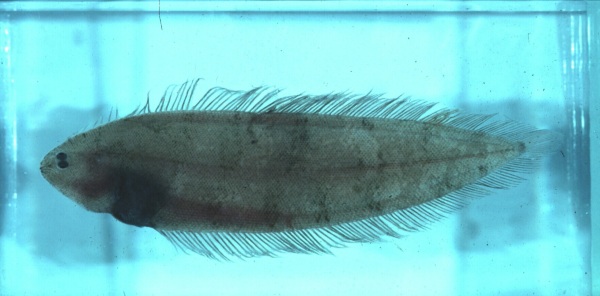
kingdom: Animalia
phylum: Chordata
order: Pleuronectiformes
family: Cynoglossidae
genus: Cynoglossus
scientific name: Cynoglossus
